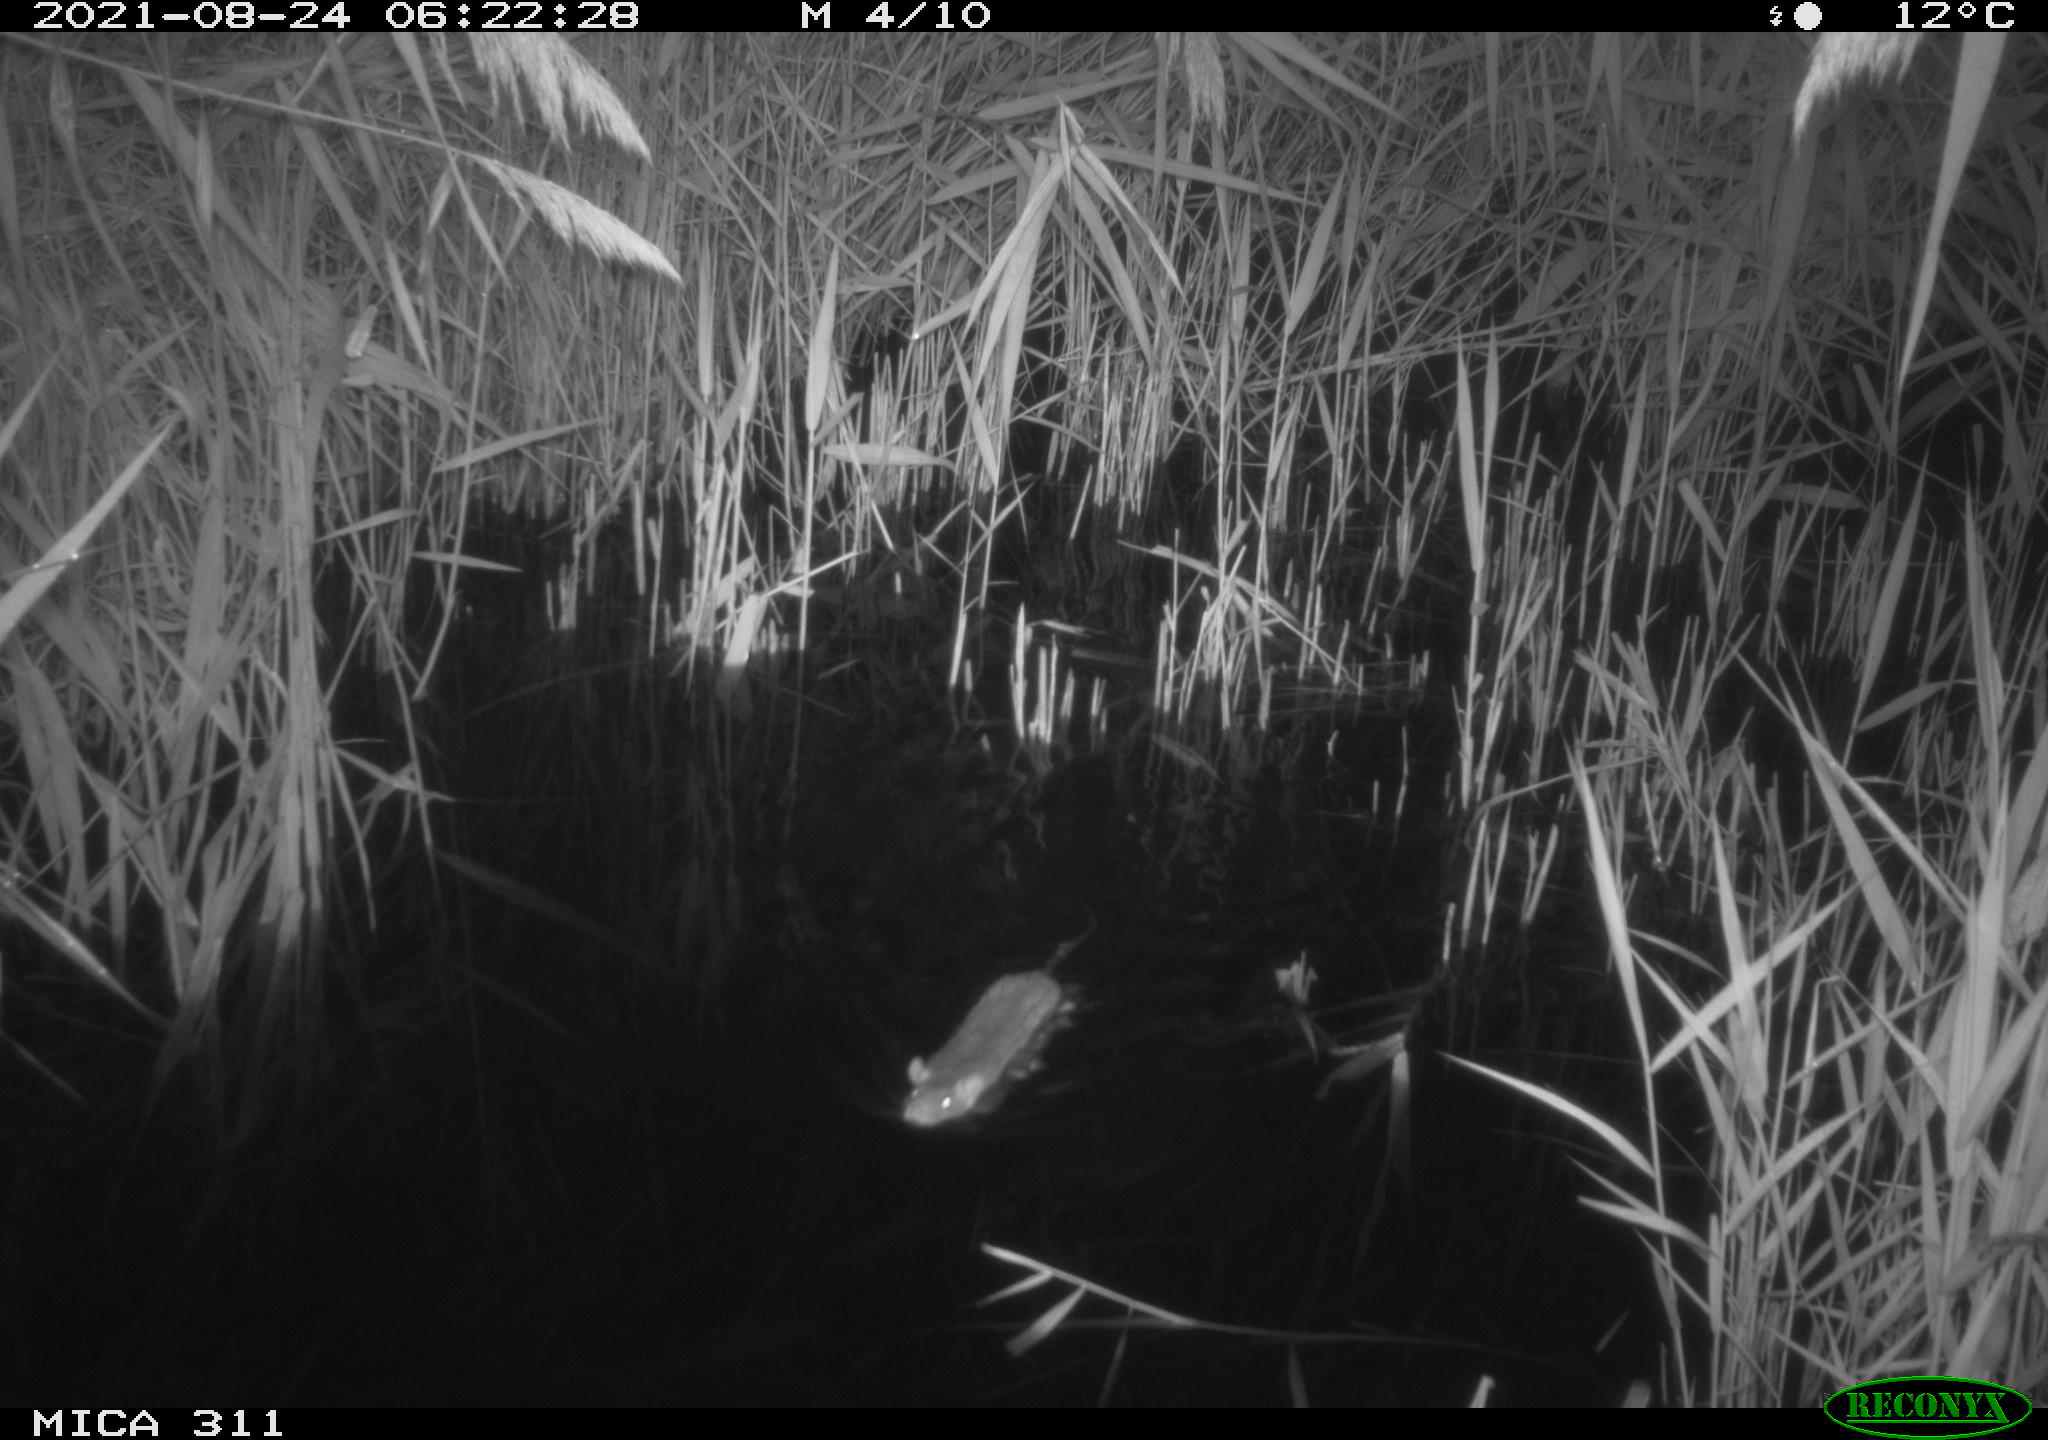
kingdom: Animalia
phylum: Chordata
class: Mammalia
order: Rodentia
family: Muridae
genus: Rattus
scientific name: Rattus norvegicus
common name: Brown rat
